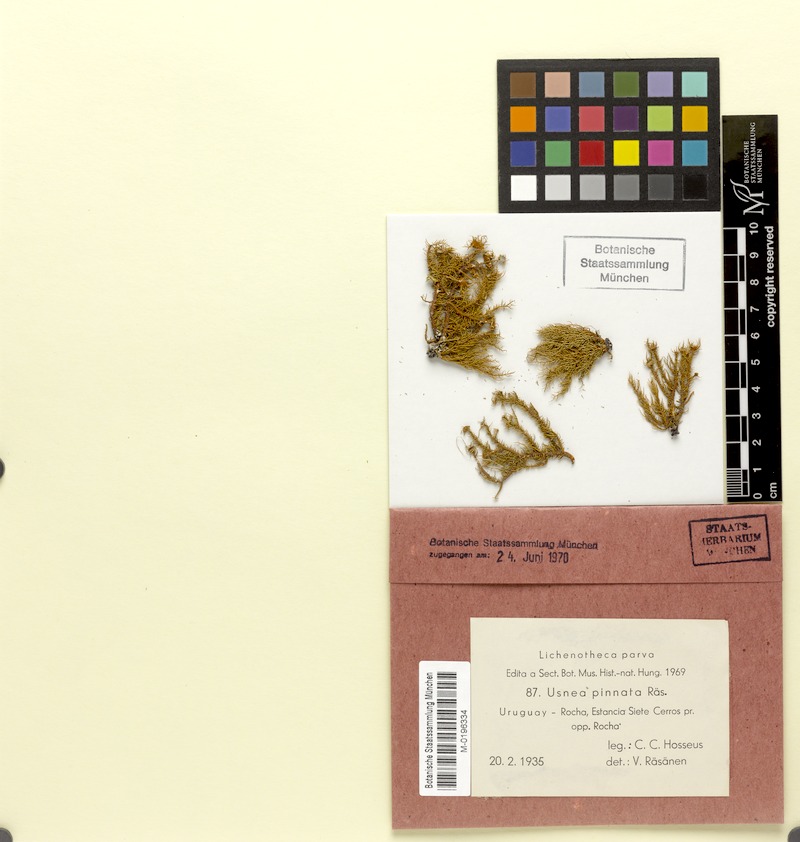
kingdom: Fungi
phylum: Ascomycota
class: Lecanoromycetes
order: Lecanorales
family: Parmeliaceae
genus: Usnea
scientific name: Usnea pinnata
